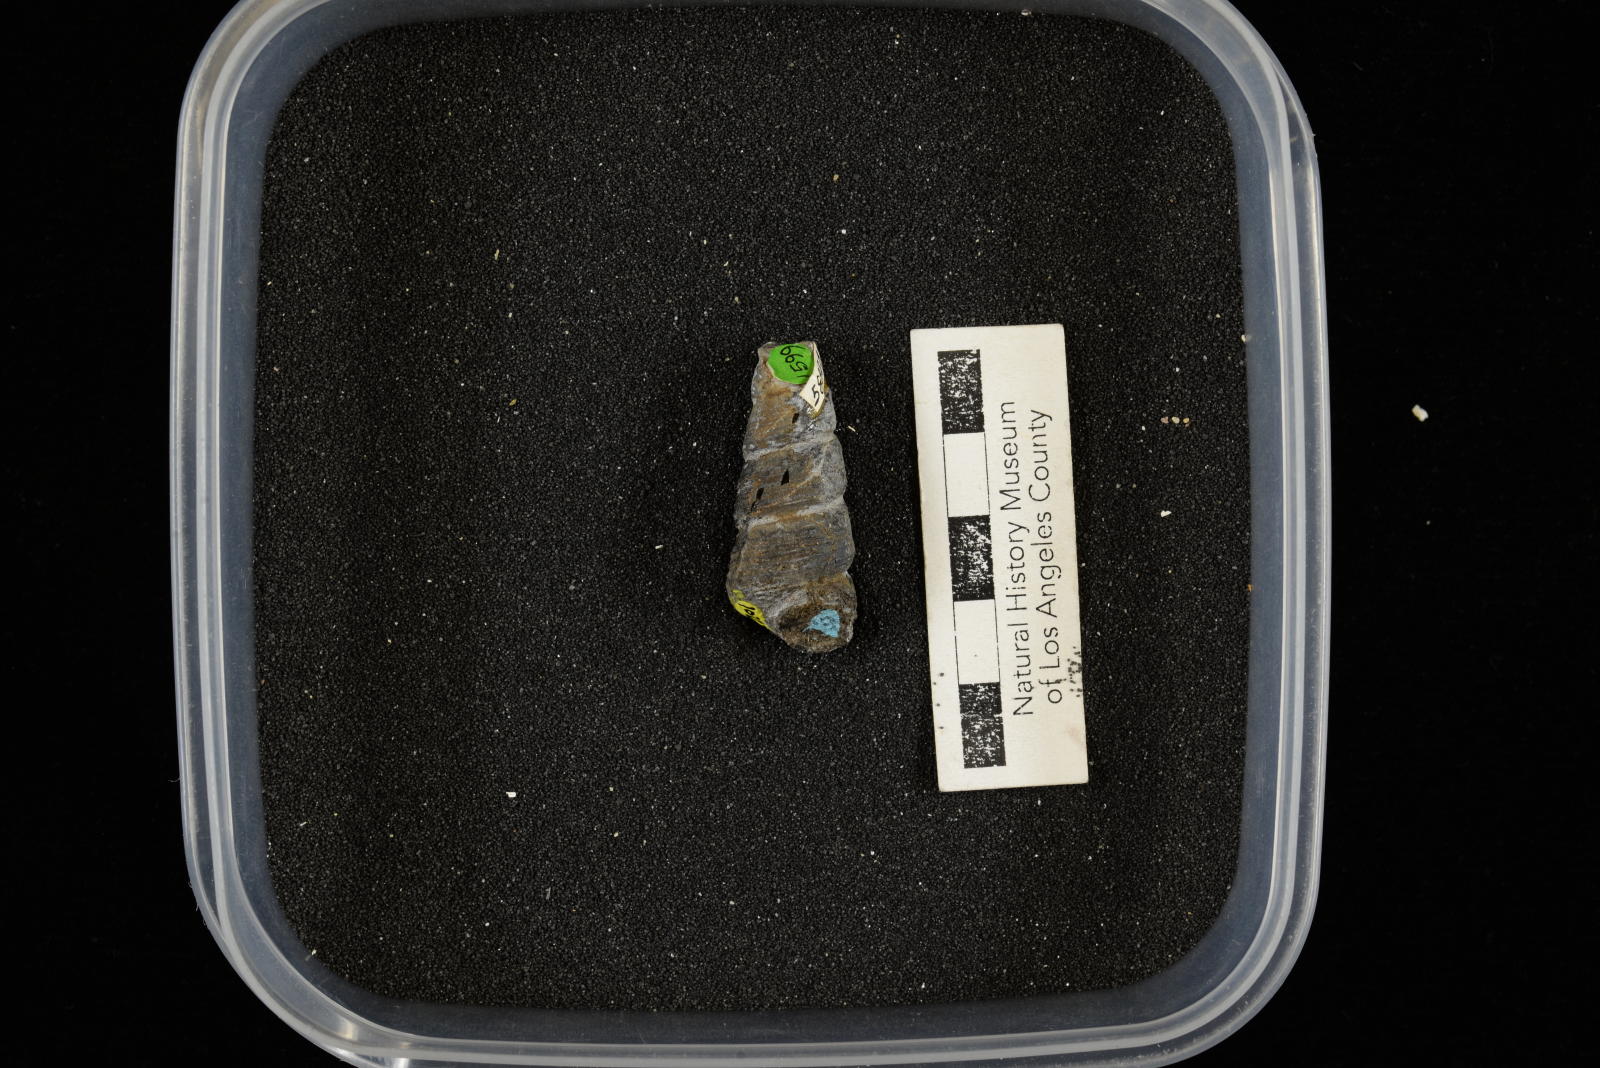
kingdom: Animalia
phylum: Mollusca
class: Gastropoda
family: Turritellidae
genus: Turritella
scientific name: Turritella chaneyi
